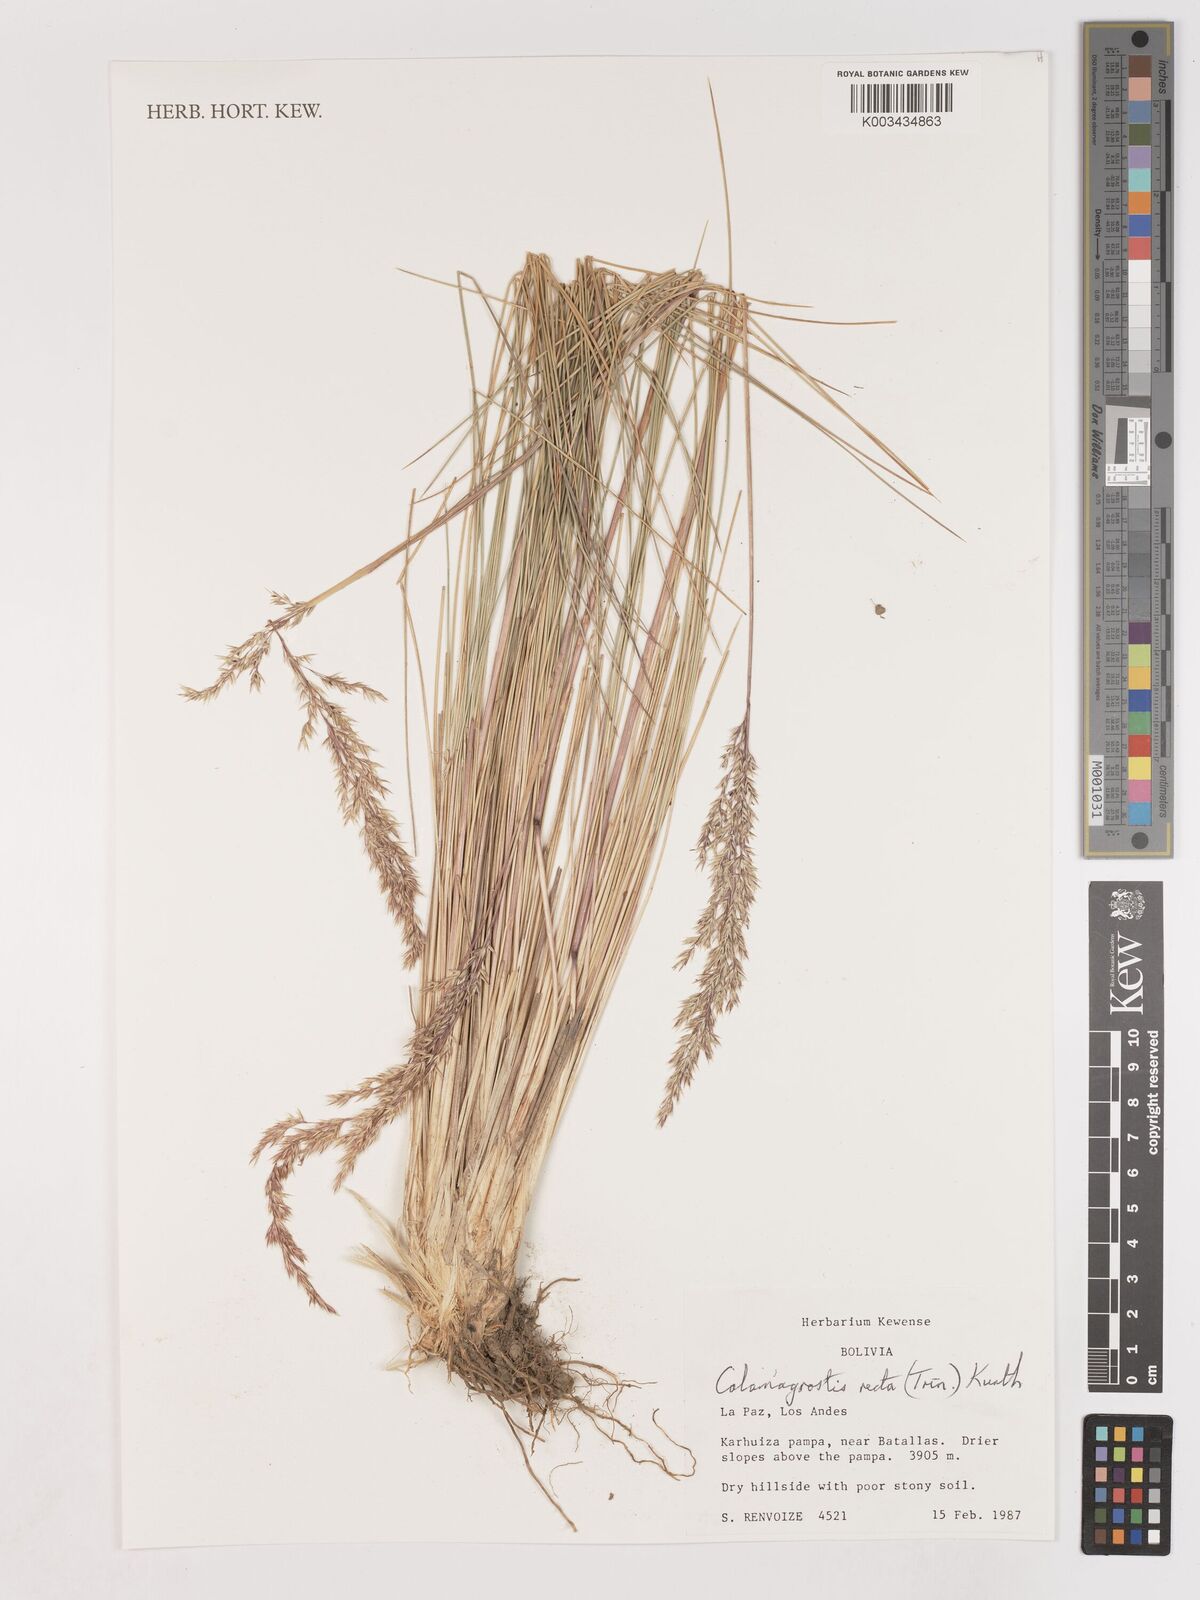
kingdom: Plantae
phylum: Tracheophyta
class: Liliopsida
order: Poales
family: Poaceae
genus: Cinnagrostis
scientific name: Cinnagrostis recta
